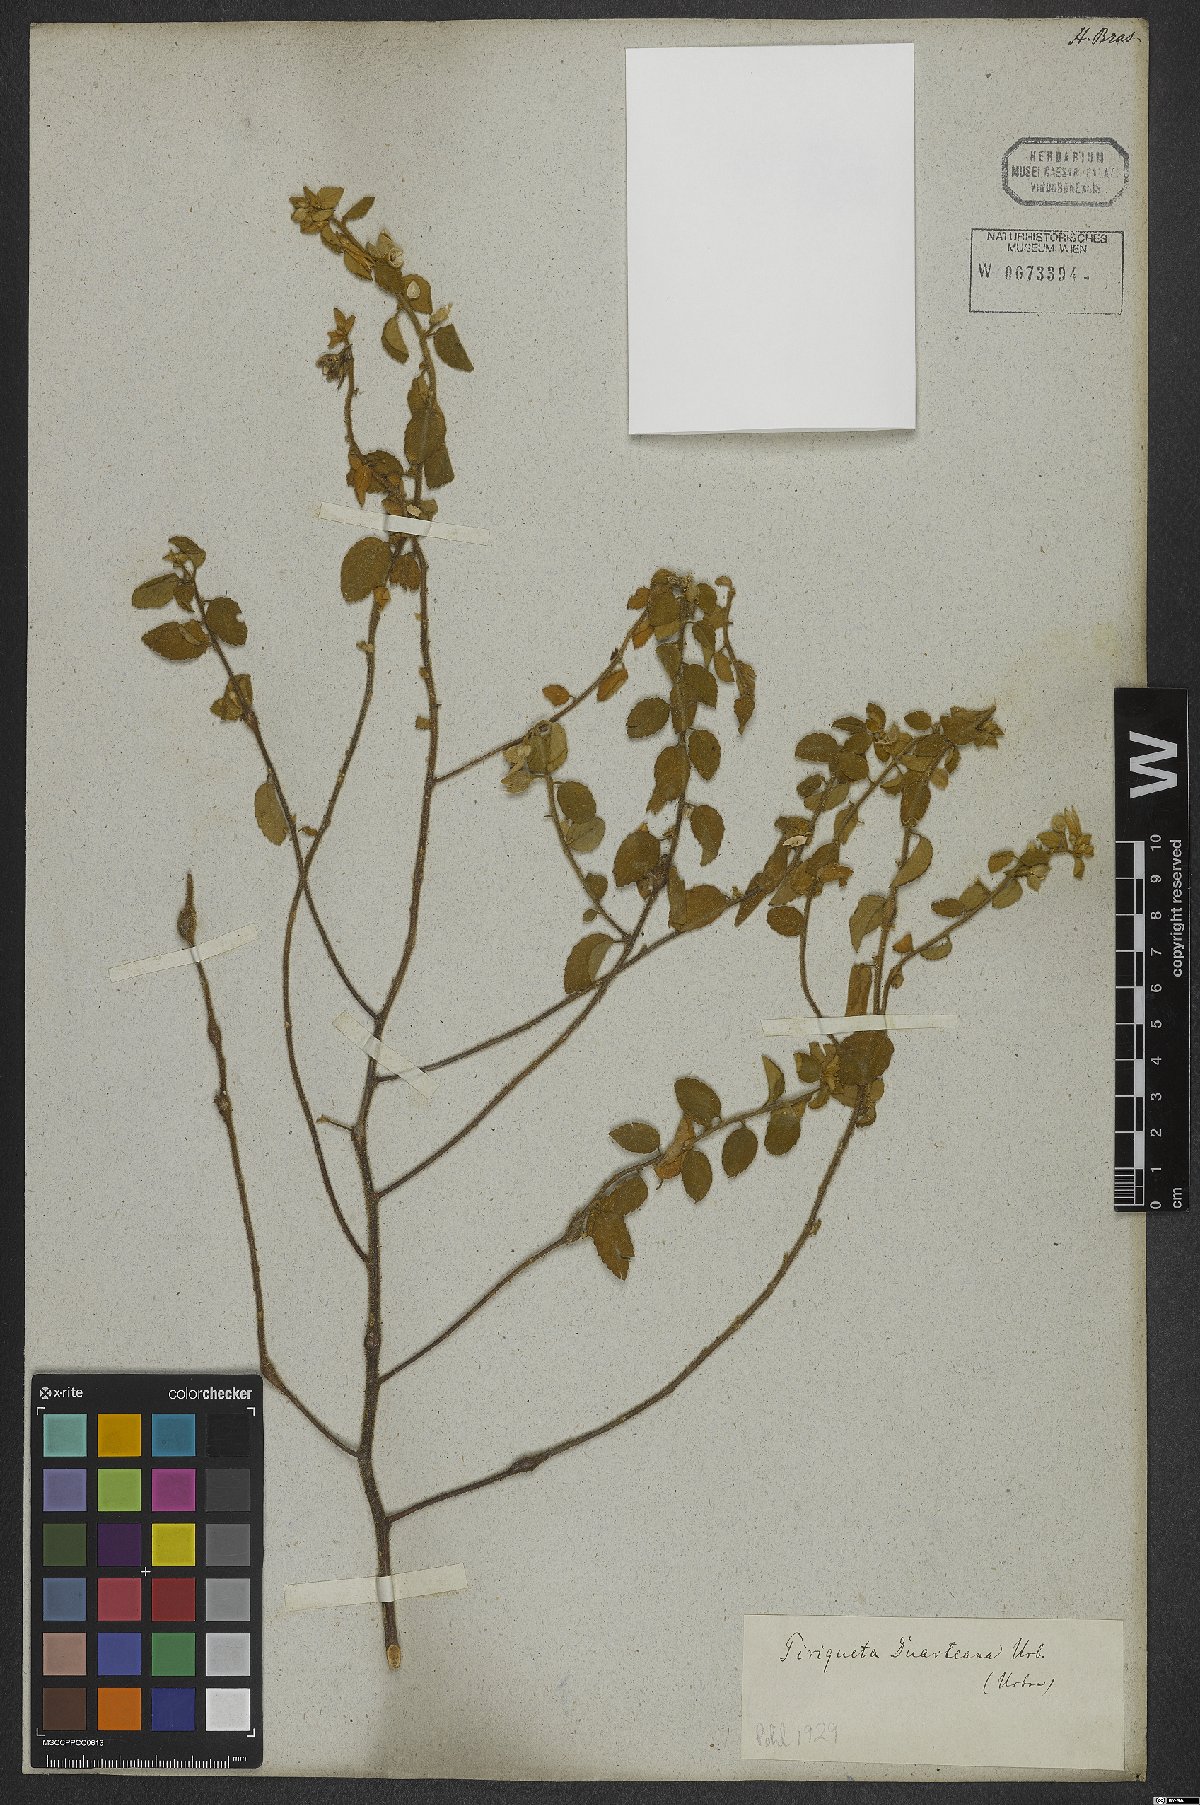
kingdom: Plantae
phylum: Tracheophyta
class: Magnoliopsida
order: Malpighiales
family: Turneraceae
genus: Piriqueta
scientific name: Piriqueta duarteana
